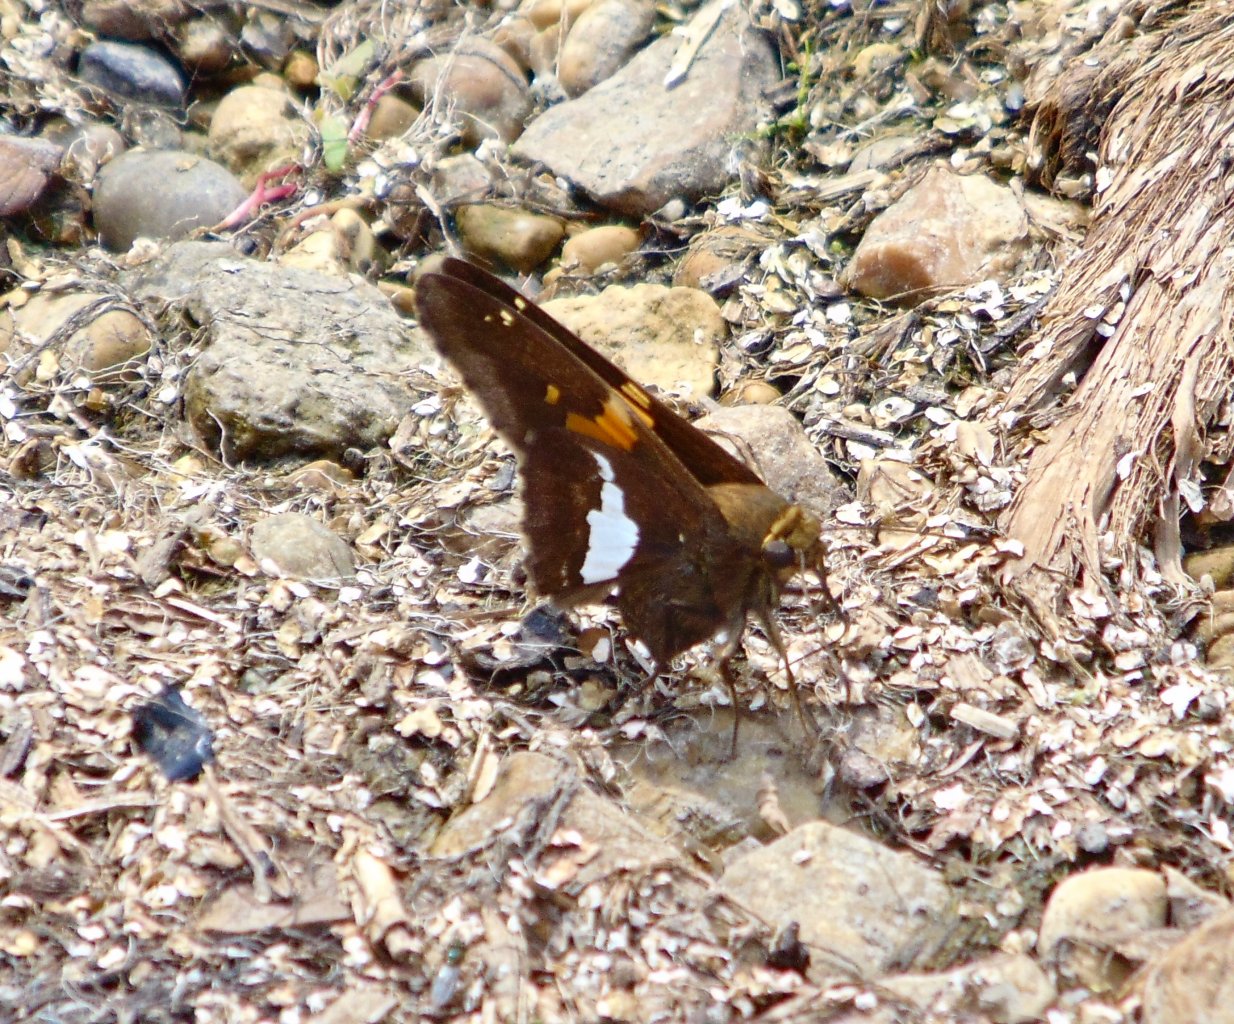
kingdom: Animalia
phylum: Arthropoda
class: Insecta
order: Lepidoptera
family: Hesperiidae
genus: Epargyreus
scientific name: Epargyreus clarus
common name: Silver-spotted Skipper
